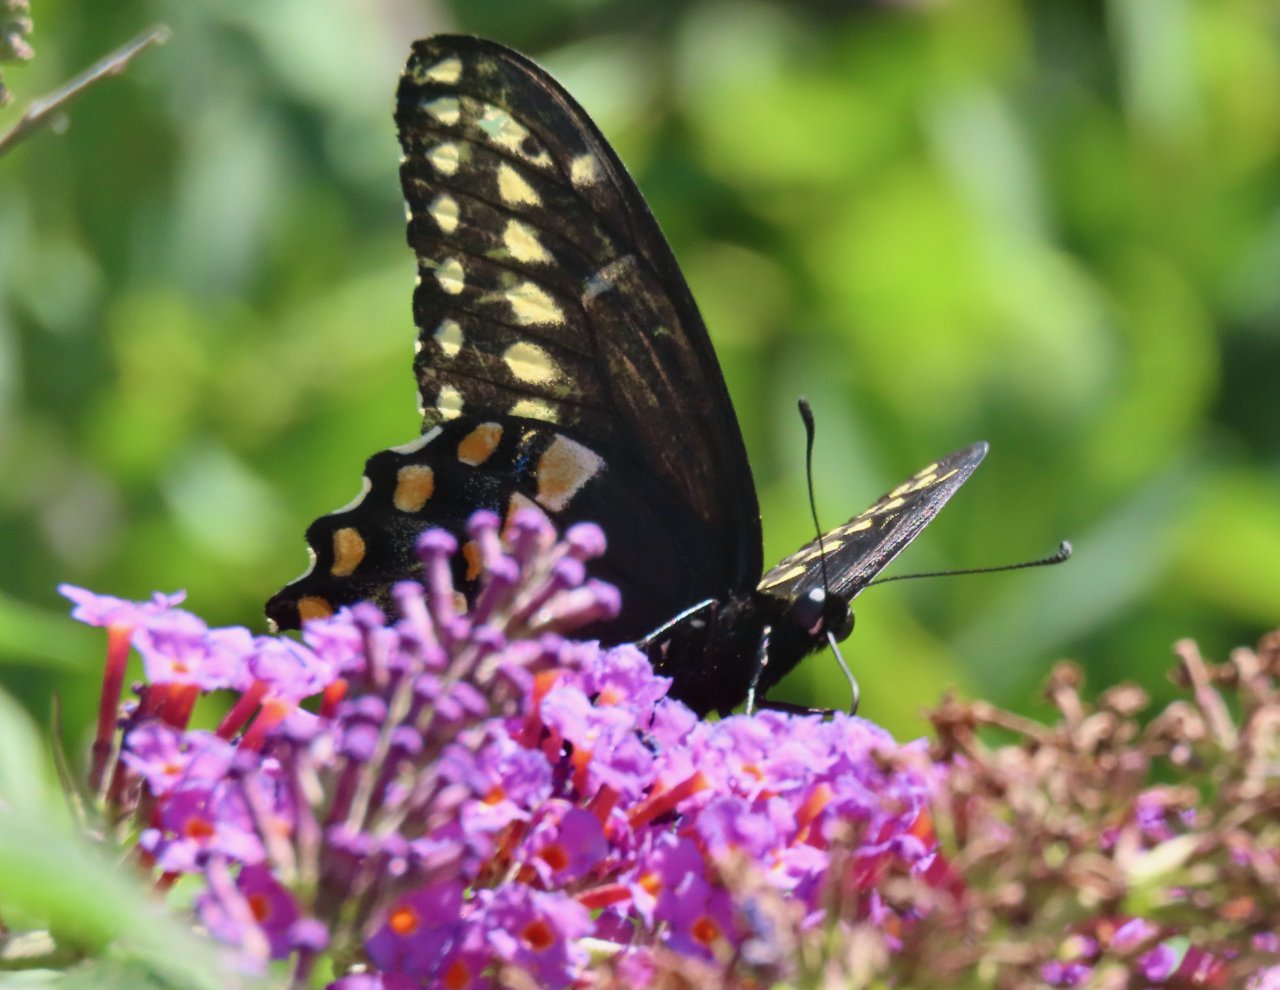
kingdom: Animalia
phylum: Arthropoda
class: Insecta
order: Lepidoptera
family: Papilionidae
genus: Papilio
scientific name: Papilio polyxenes
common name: Black Swallowtail
